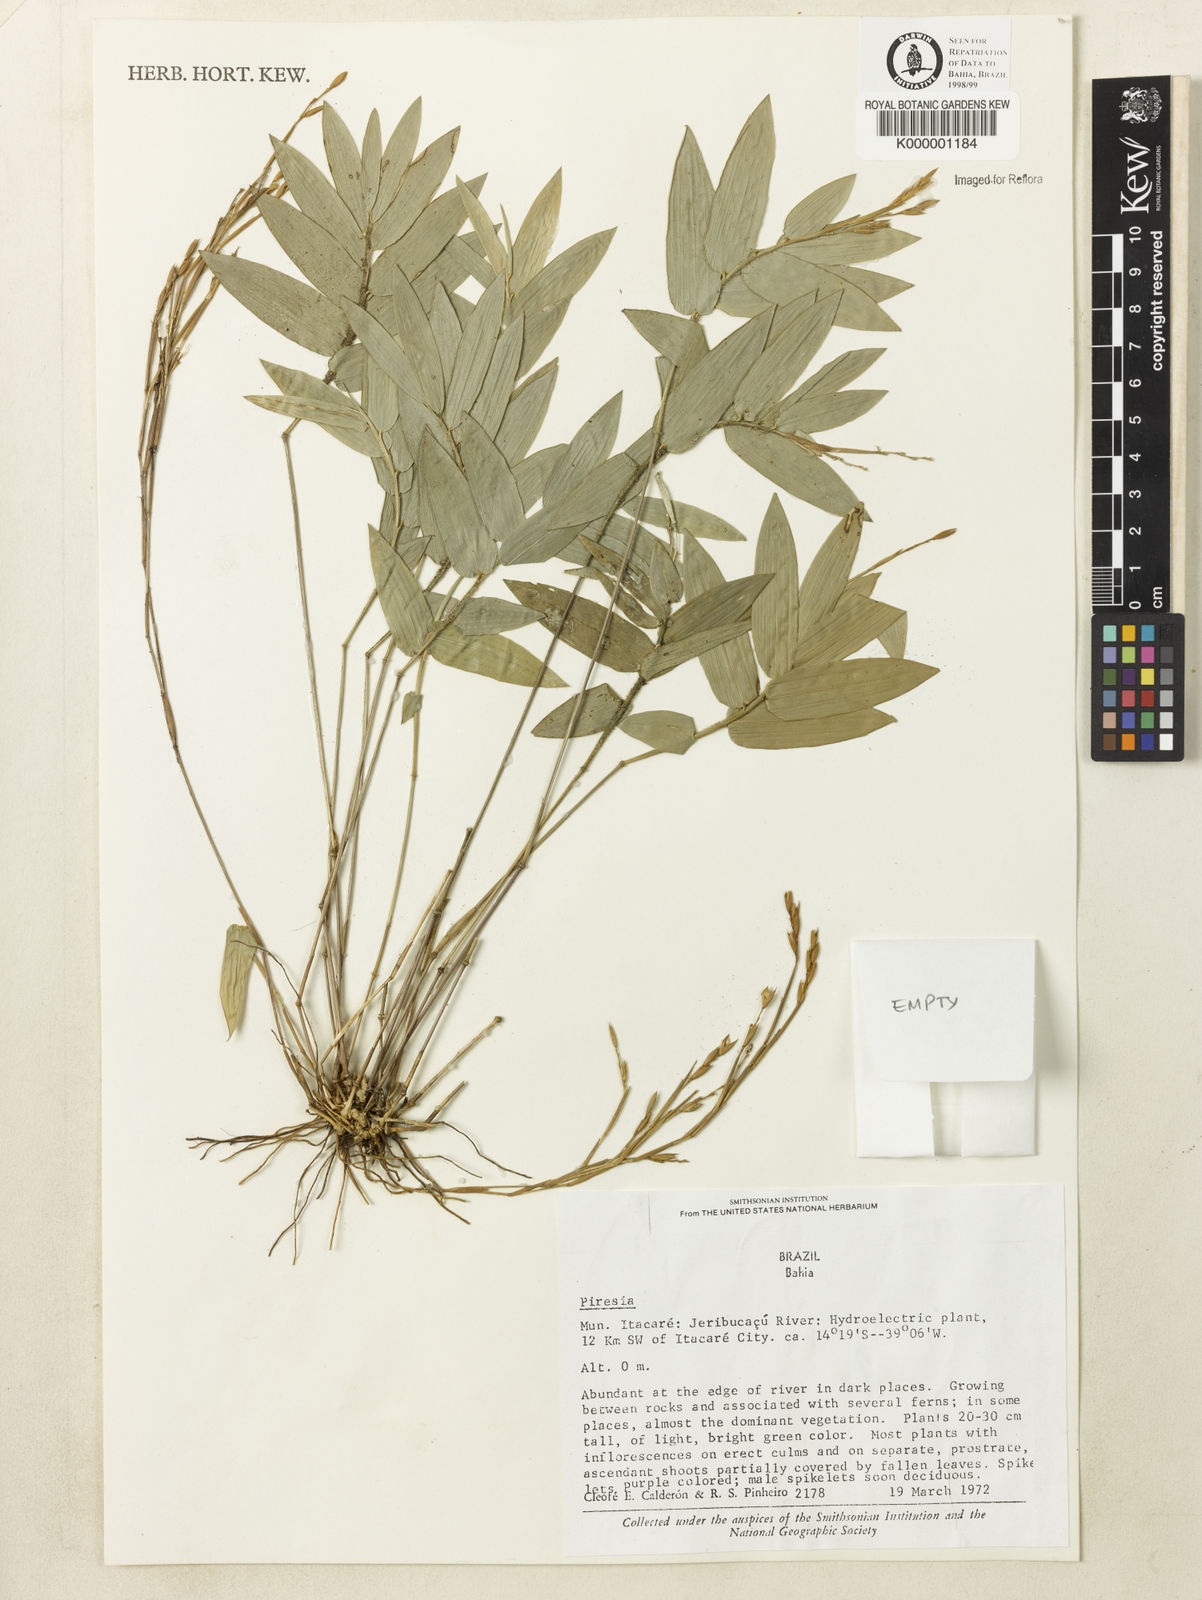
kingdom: Plantae
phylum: Tracheophyta
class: Liliopsida
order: Poales
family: Poaceae
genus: Piresia
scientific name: Piresia
